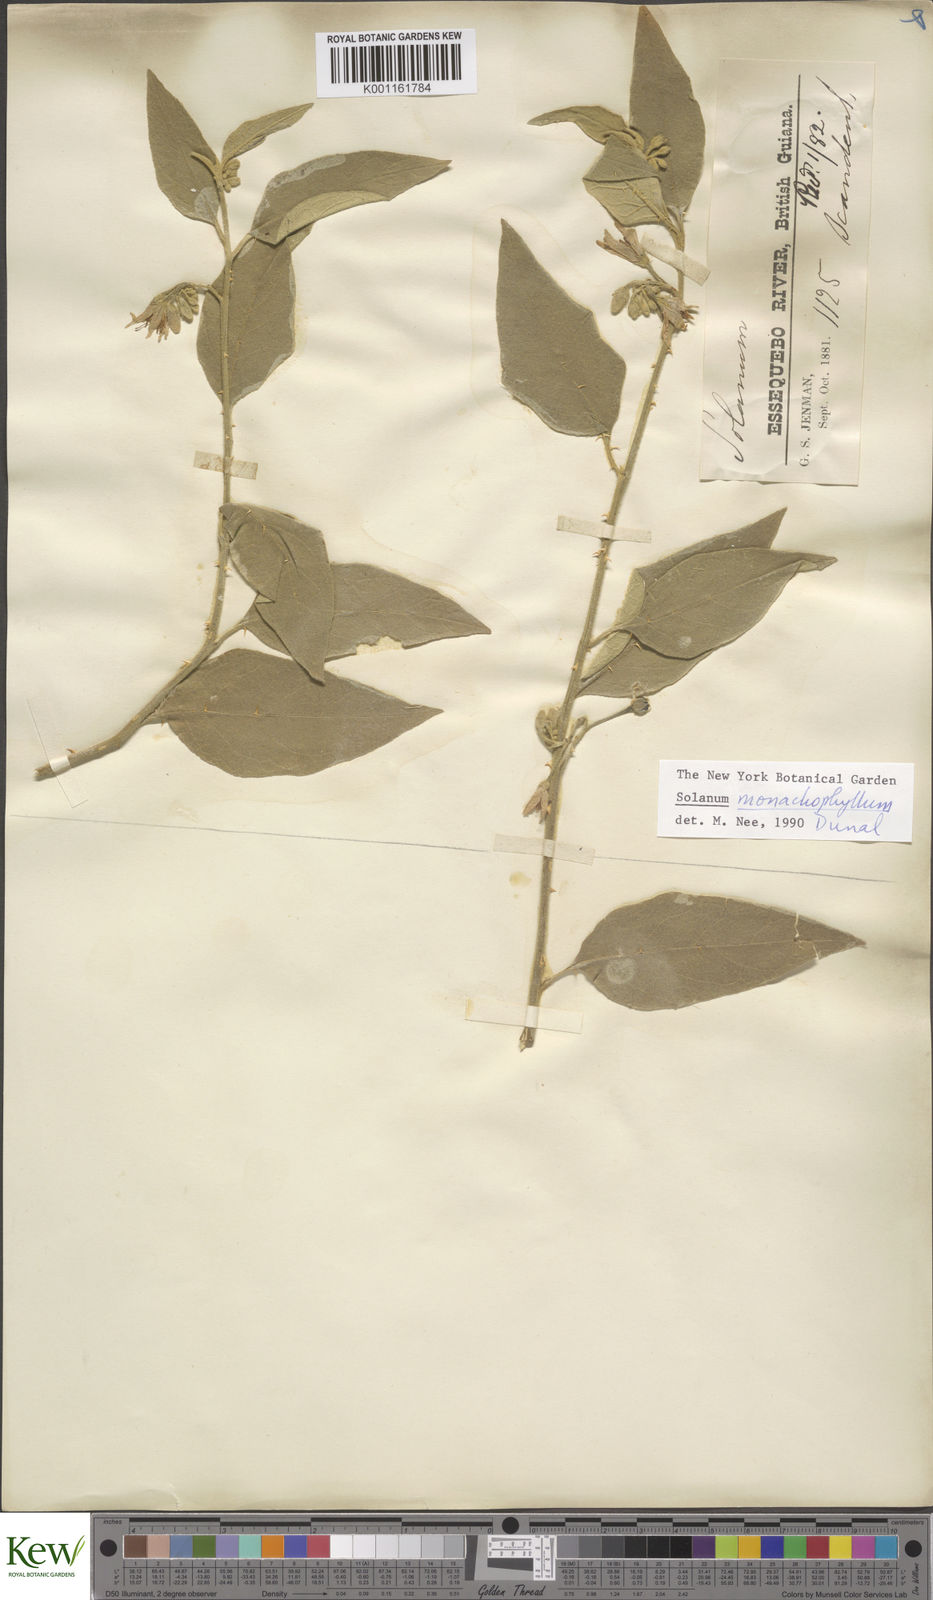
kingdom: Plantae
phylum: Tracheophyta
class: Magnoliopsida
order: Solanales
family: Solanaceae
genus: Solanum
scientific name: Solanum monachophyllum
